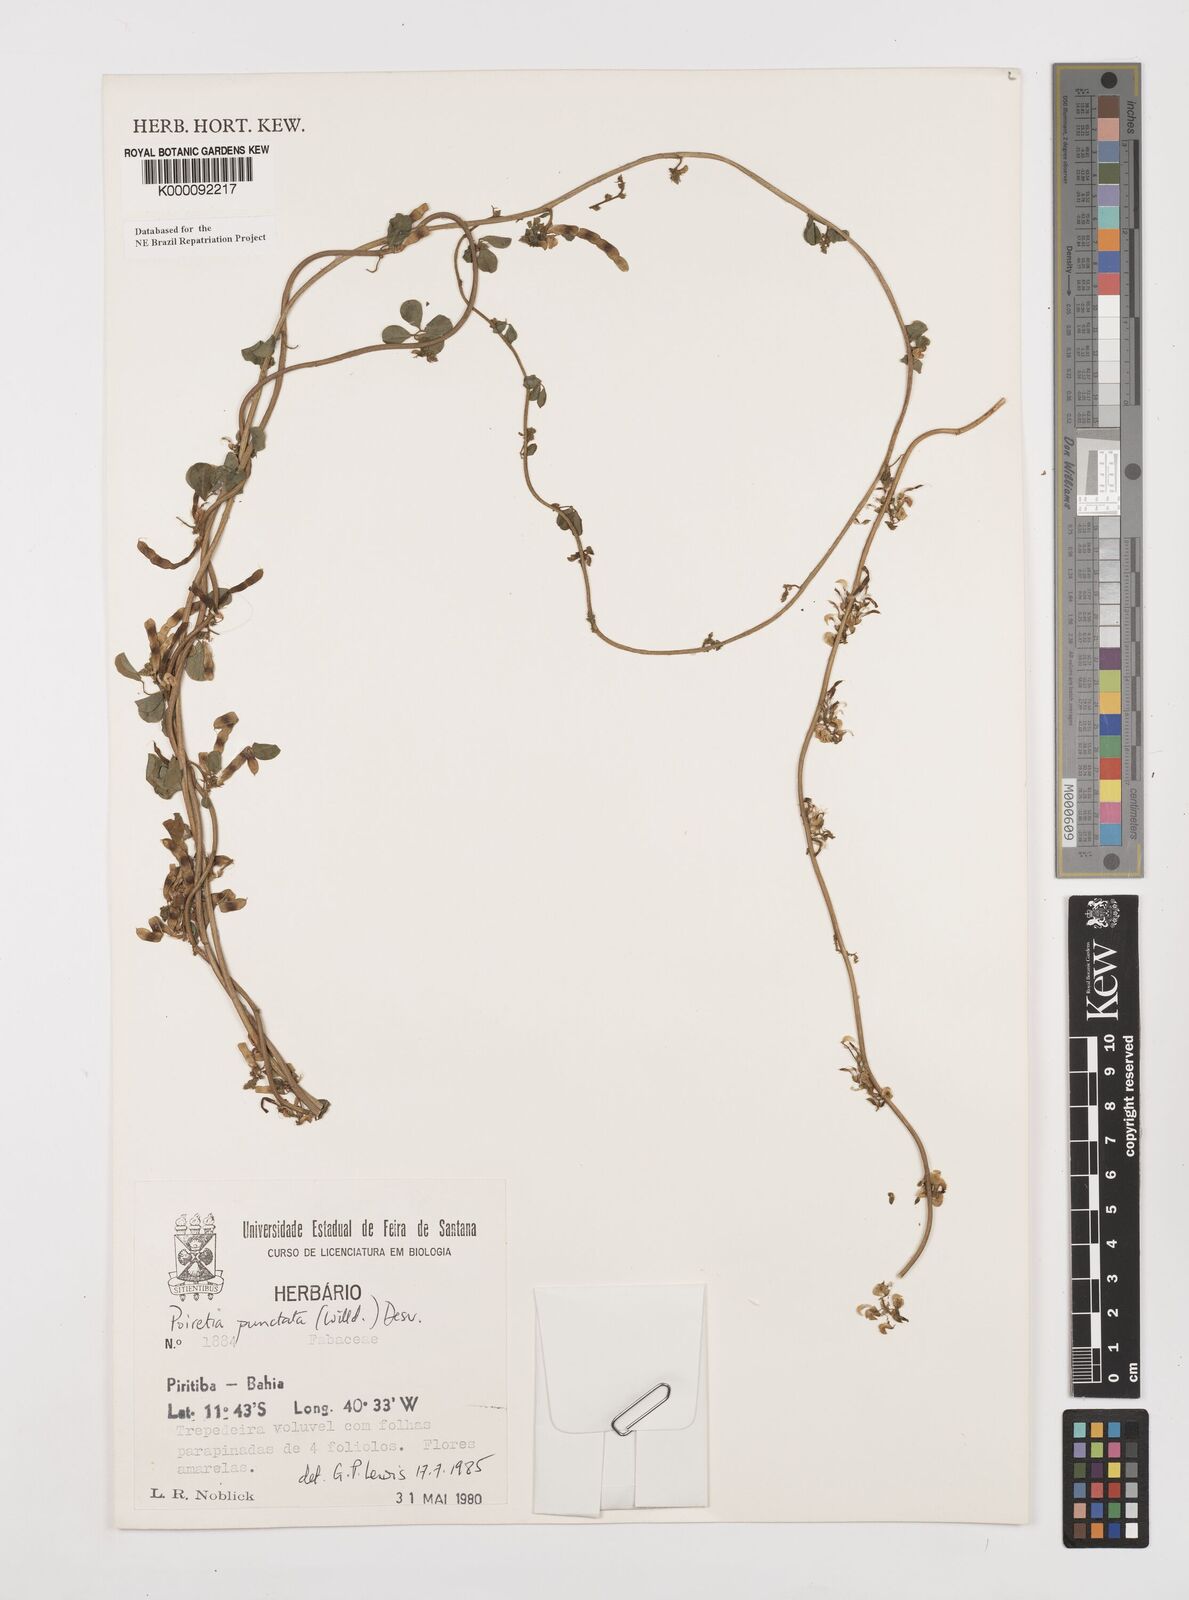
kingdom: Plantae
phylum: Tracheophyta
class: Magnoliopsida
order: Fabales
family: Fabaceae
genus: Poiretia
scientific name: Poiretia punctata
